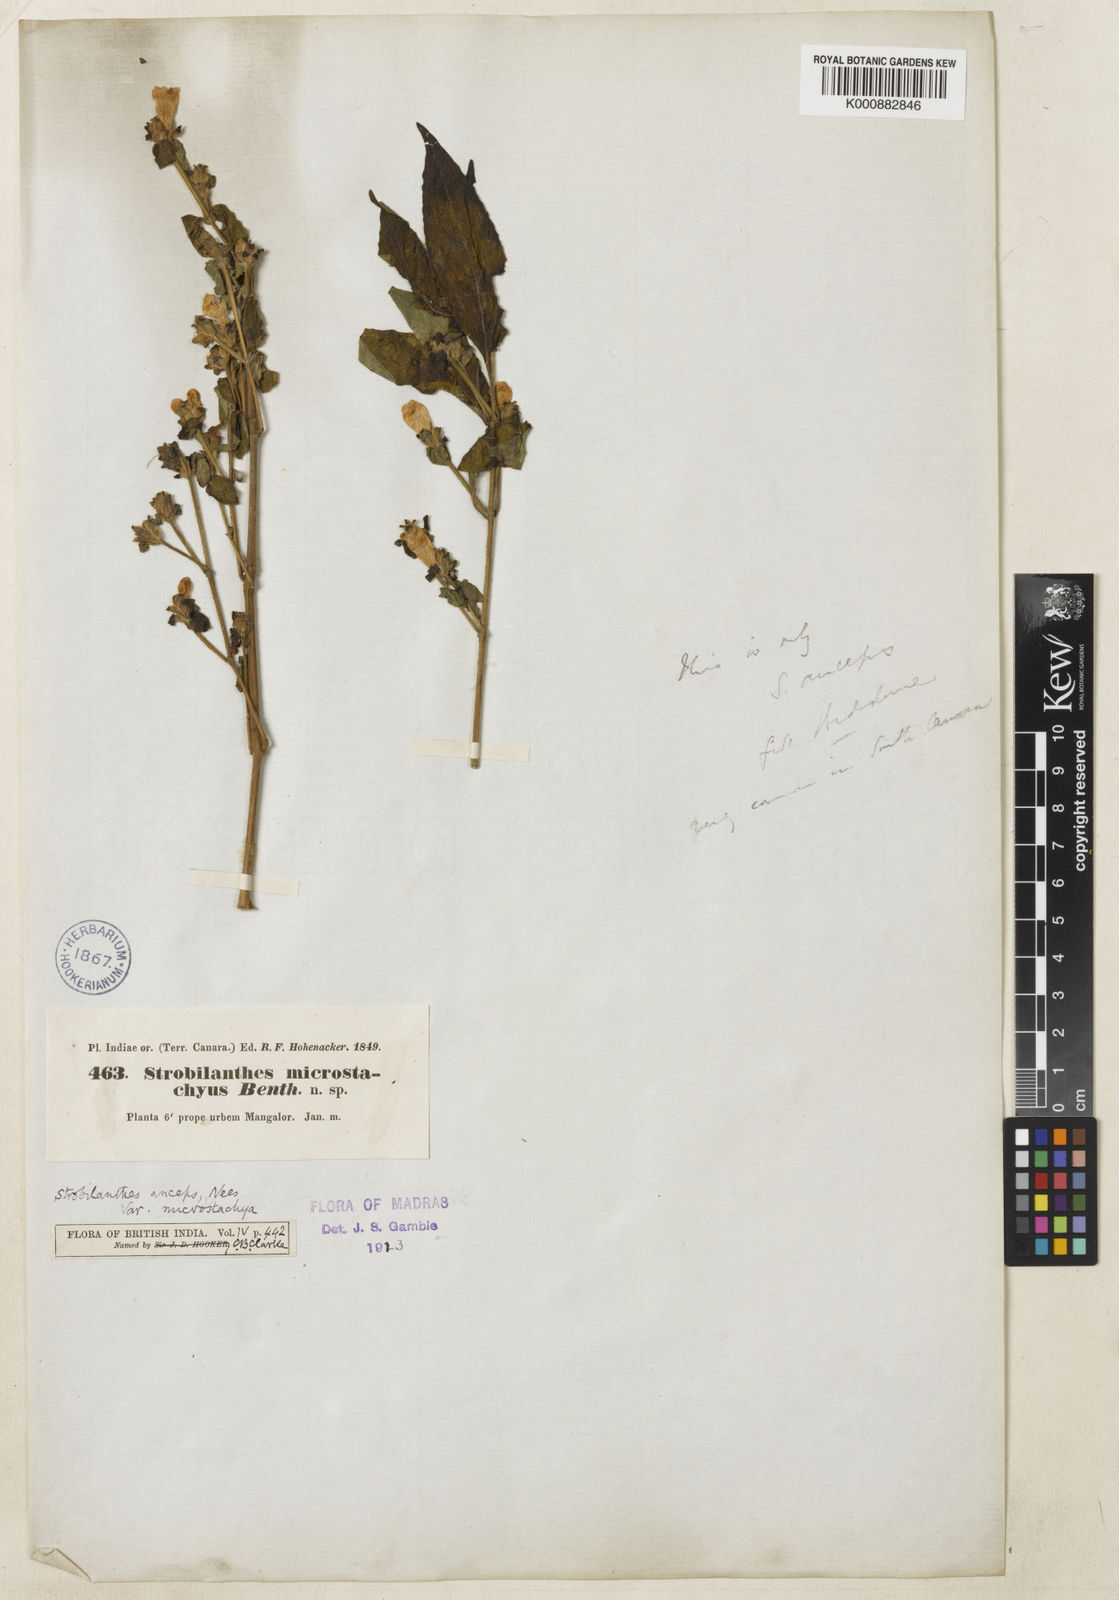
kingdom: Plantae
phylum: Tracheophyta
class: Magnoliopsida
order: Lamiales
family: Acanthaceae
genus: Strobilanthes
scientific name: Strobilanthes
